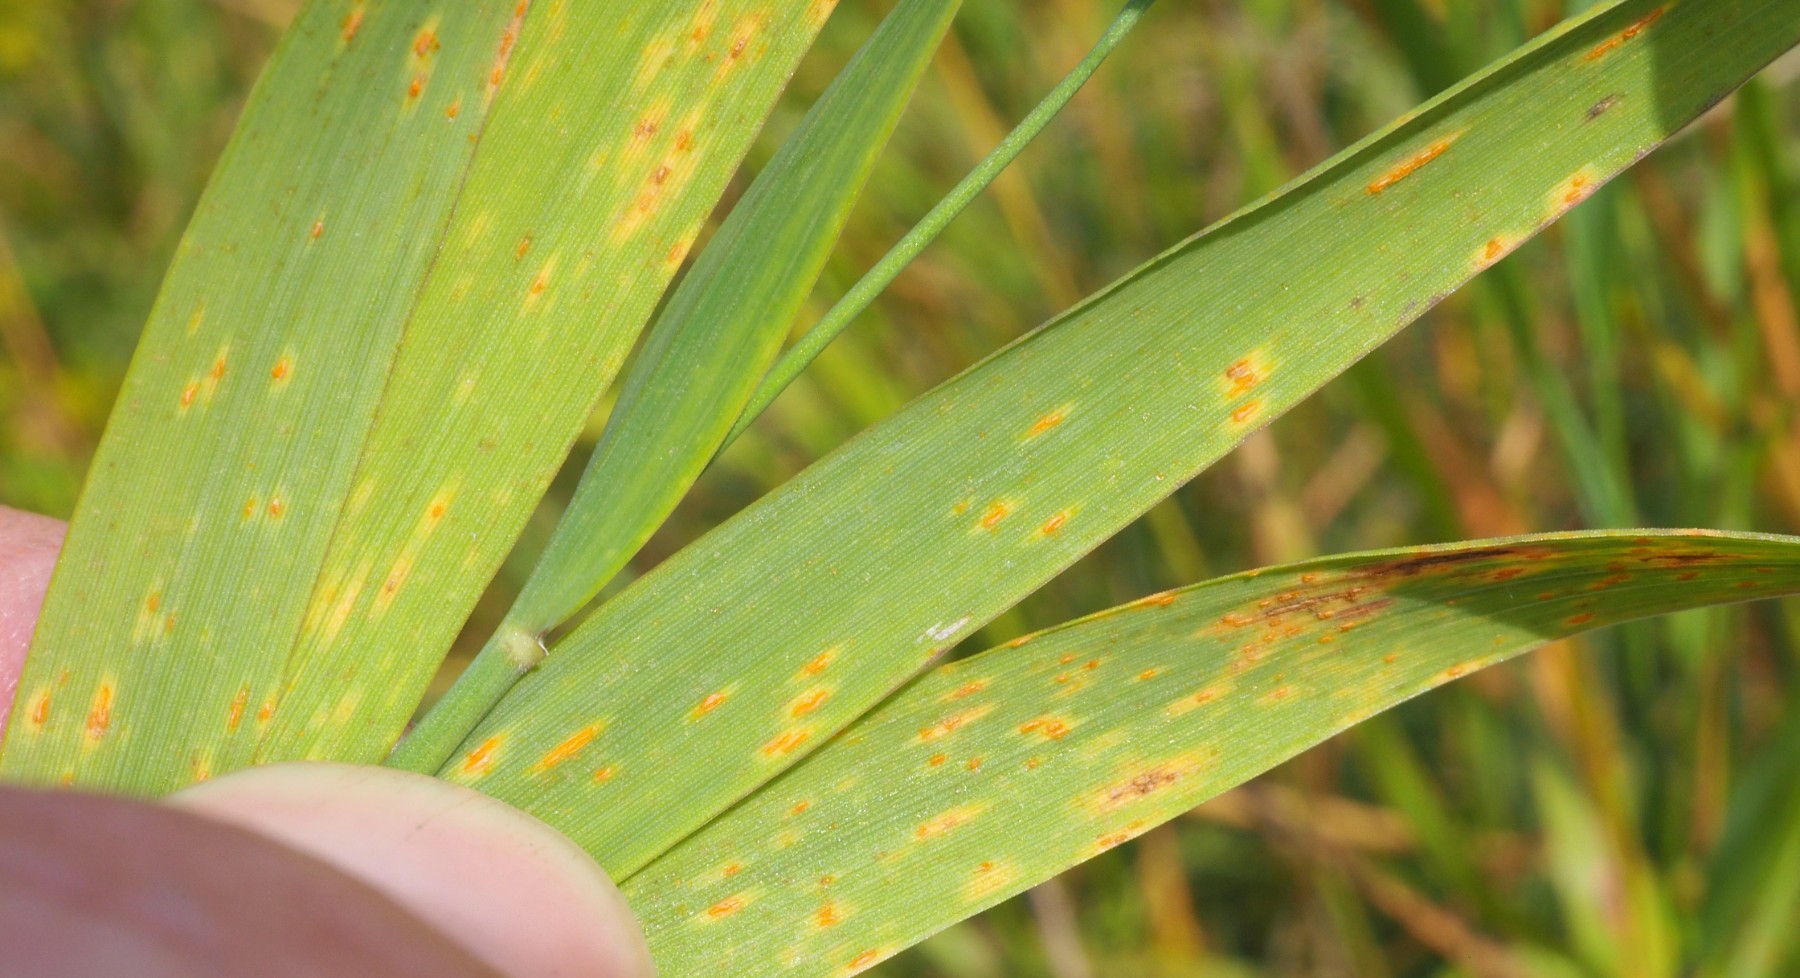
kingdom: Fungi
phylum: Basidiomycota
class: Pucciniomycetes
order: Pucciniales
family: Pucciniaceae
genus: Puccinia
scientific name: Puccinia coronata
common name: Crown rust
